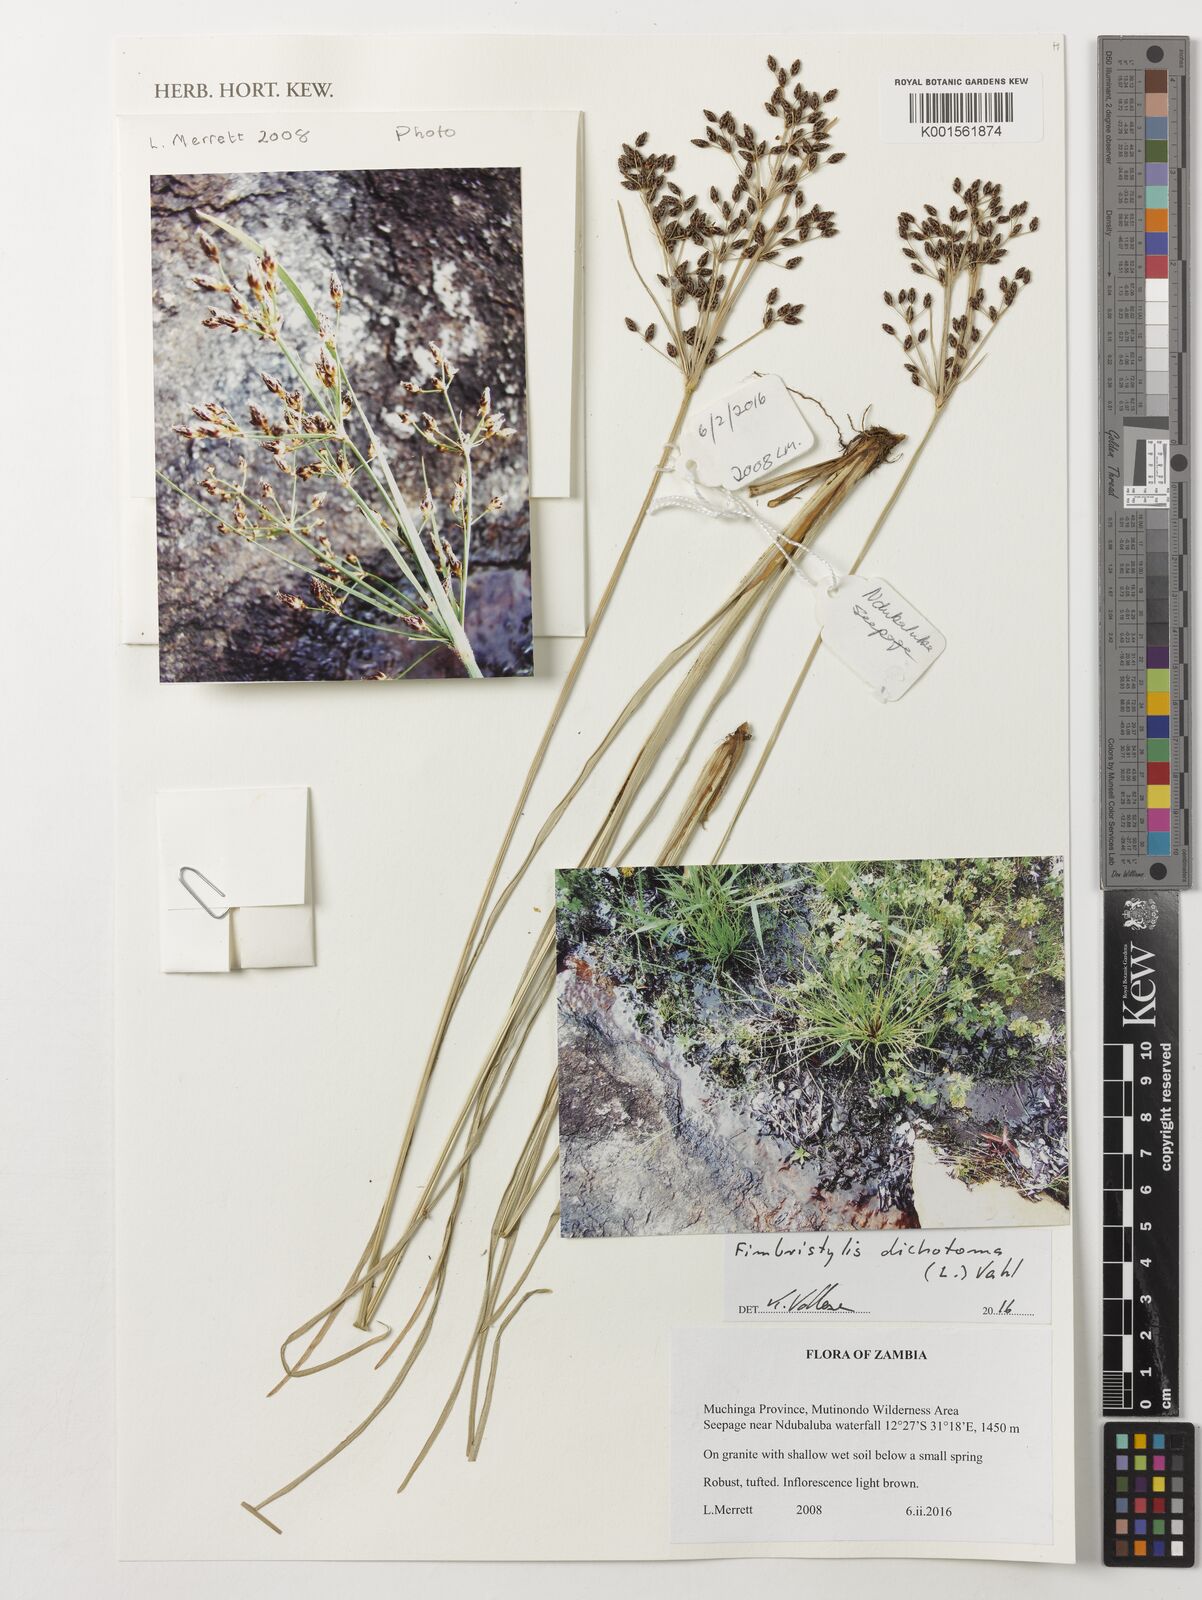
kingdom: Plantae
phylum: Tracheophyta
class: Liliopsida
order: Poales
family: Cyperaceae
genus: Fimbristylis
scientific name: Fimbristylis dichotoma
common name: Forked fimbry
